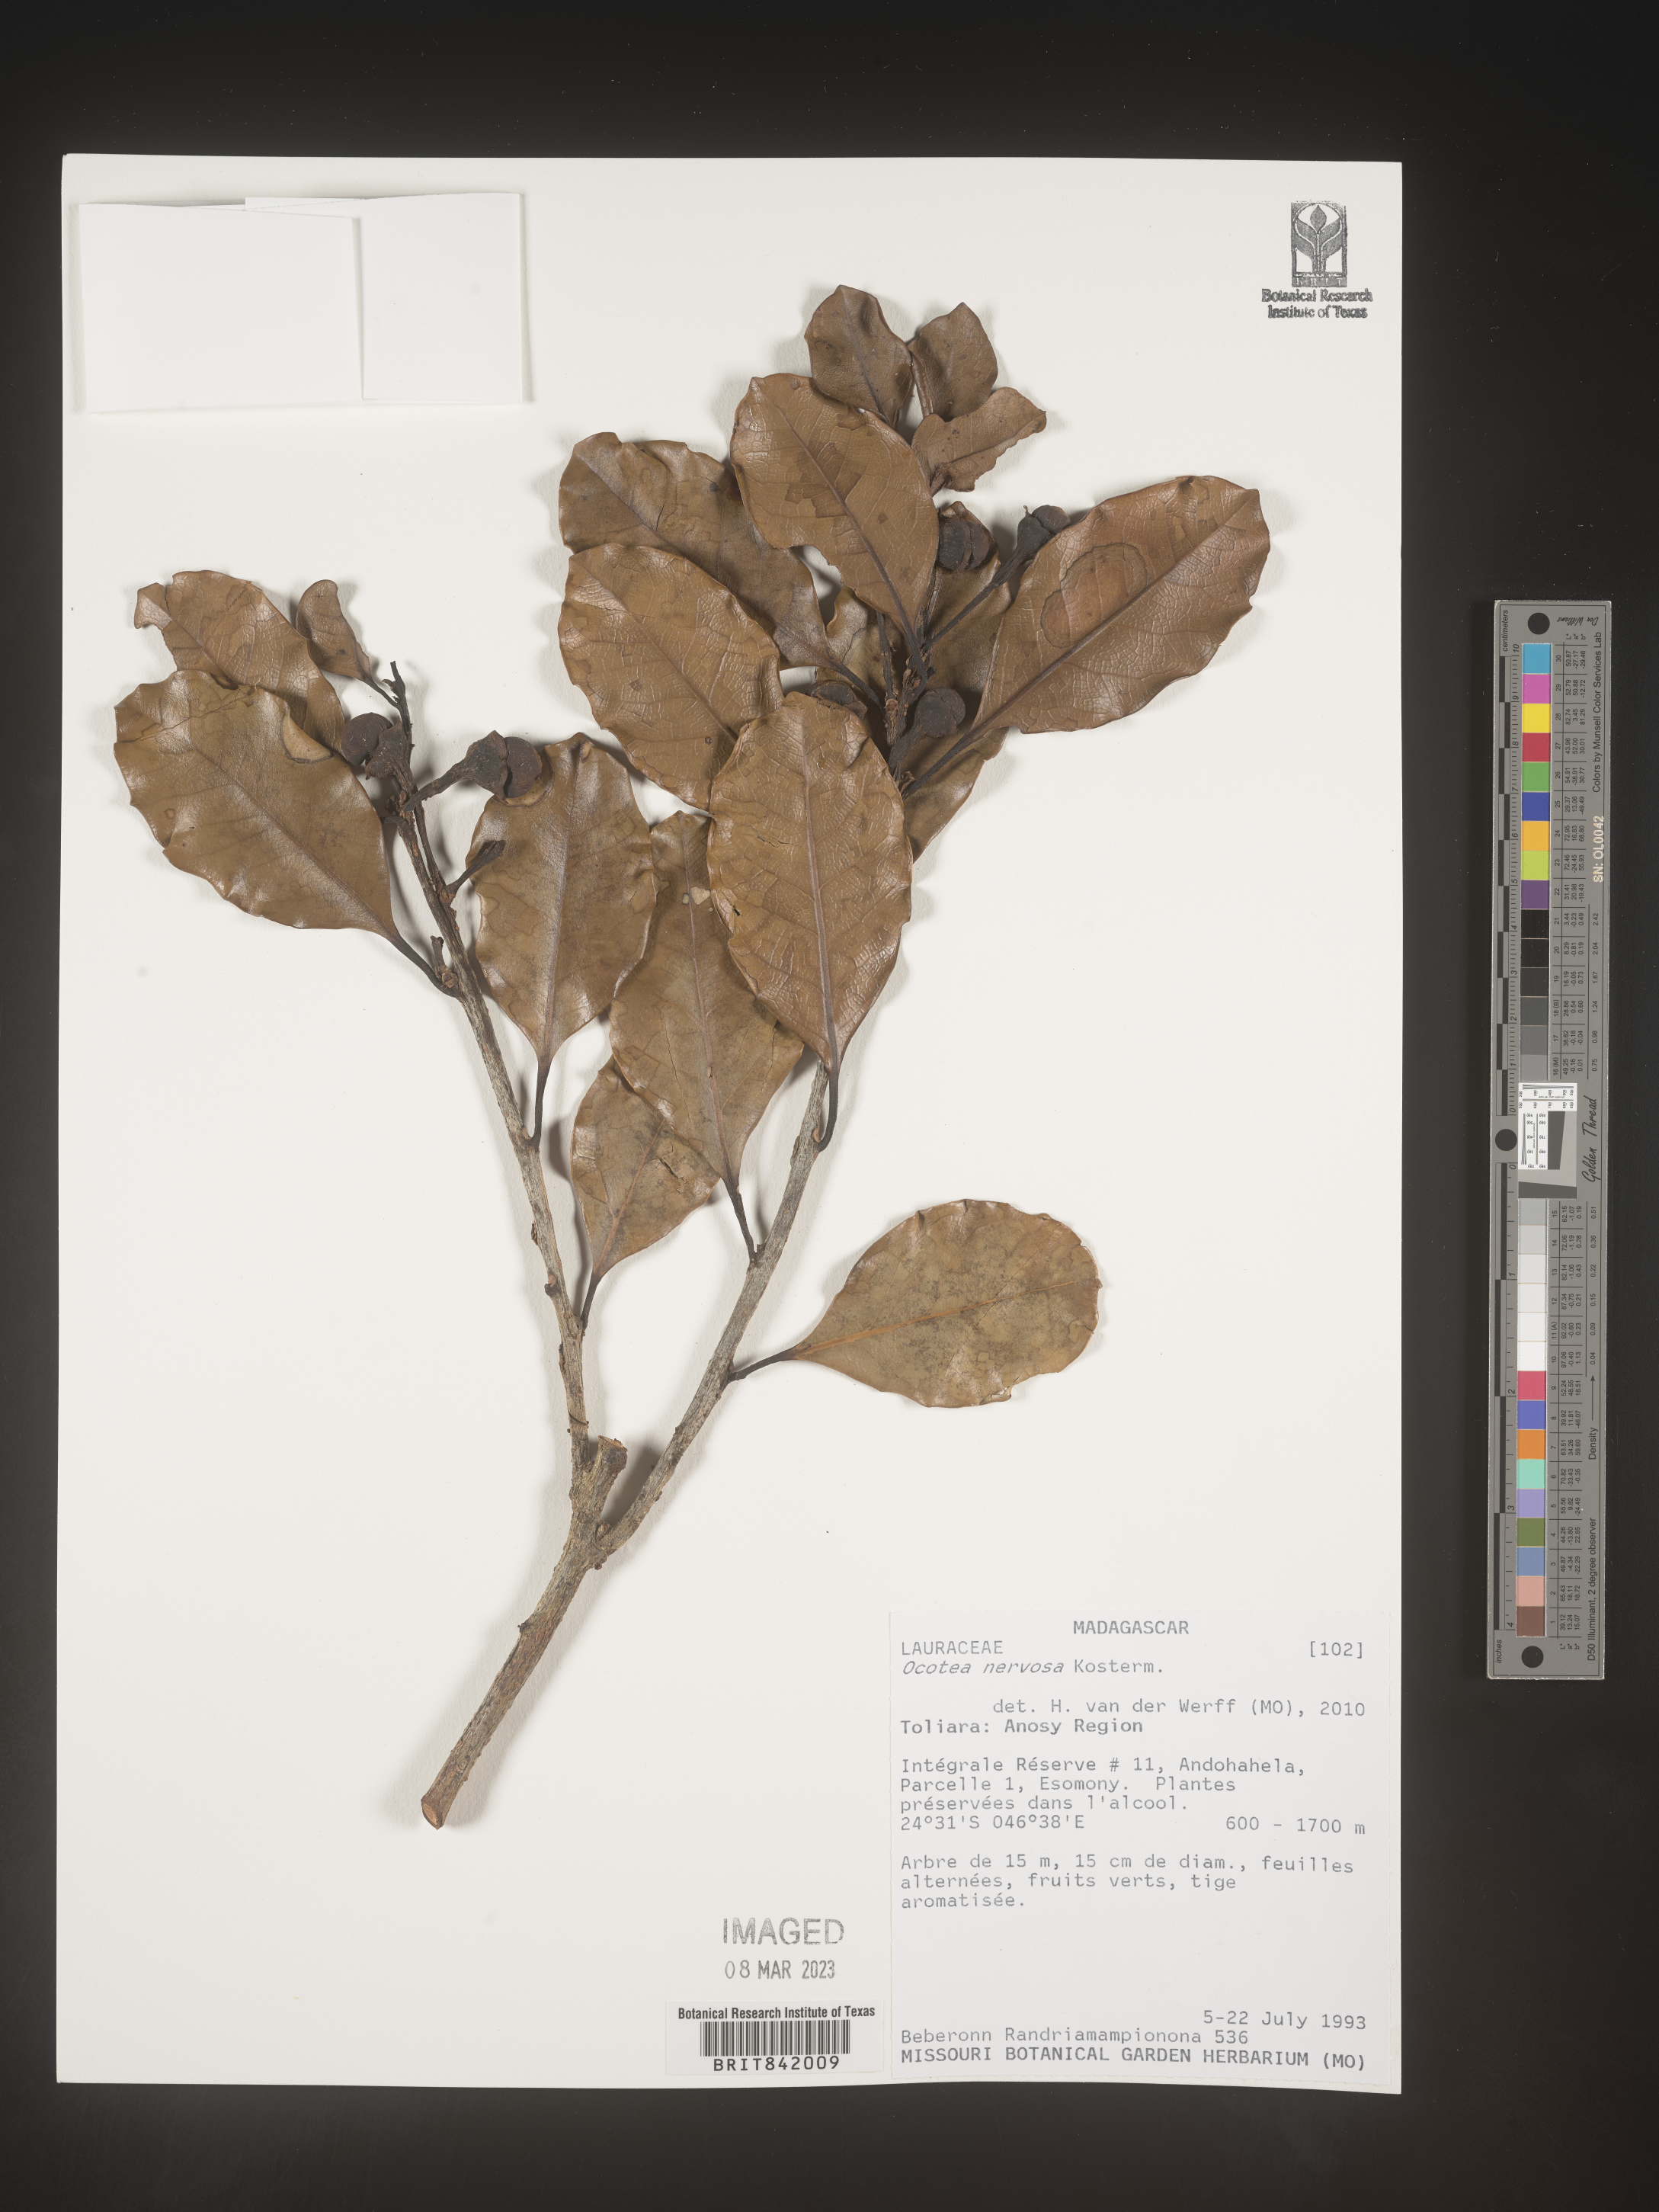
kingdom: Plantae
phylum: Tracheophyta
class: Magnoliopsida
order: Laurales
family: Lauraceae
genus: Ocotea
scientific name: Ocotea nervosa
